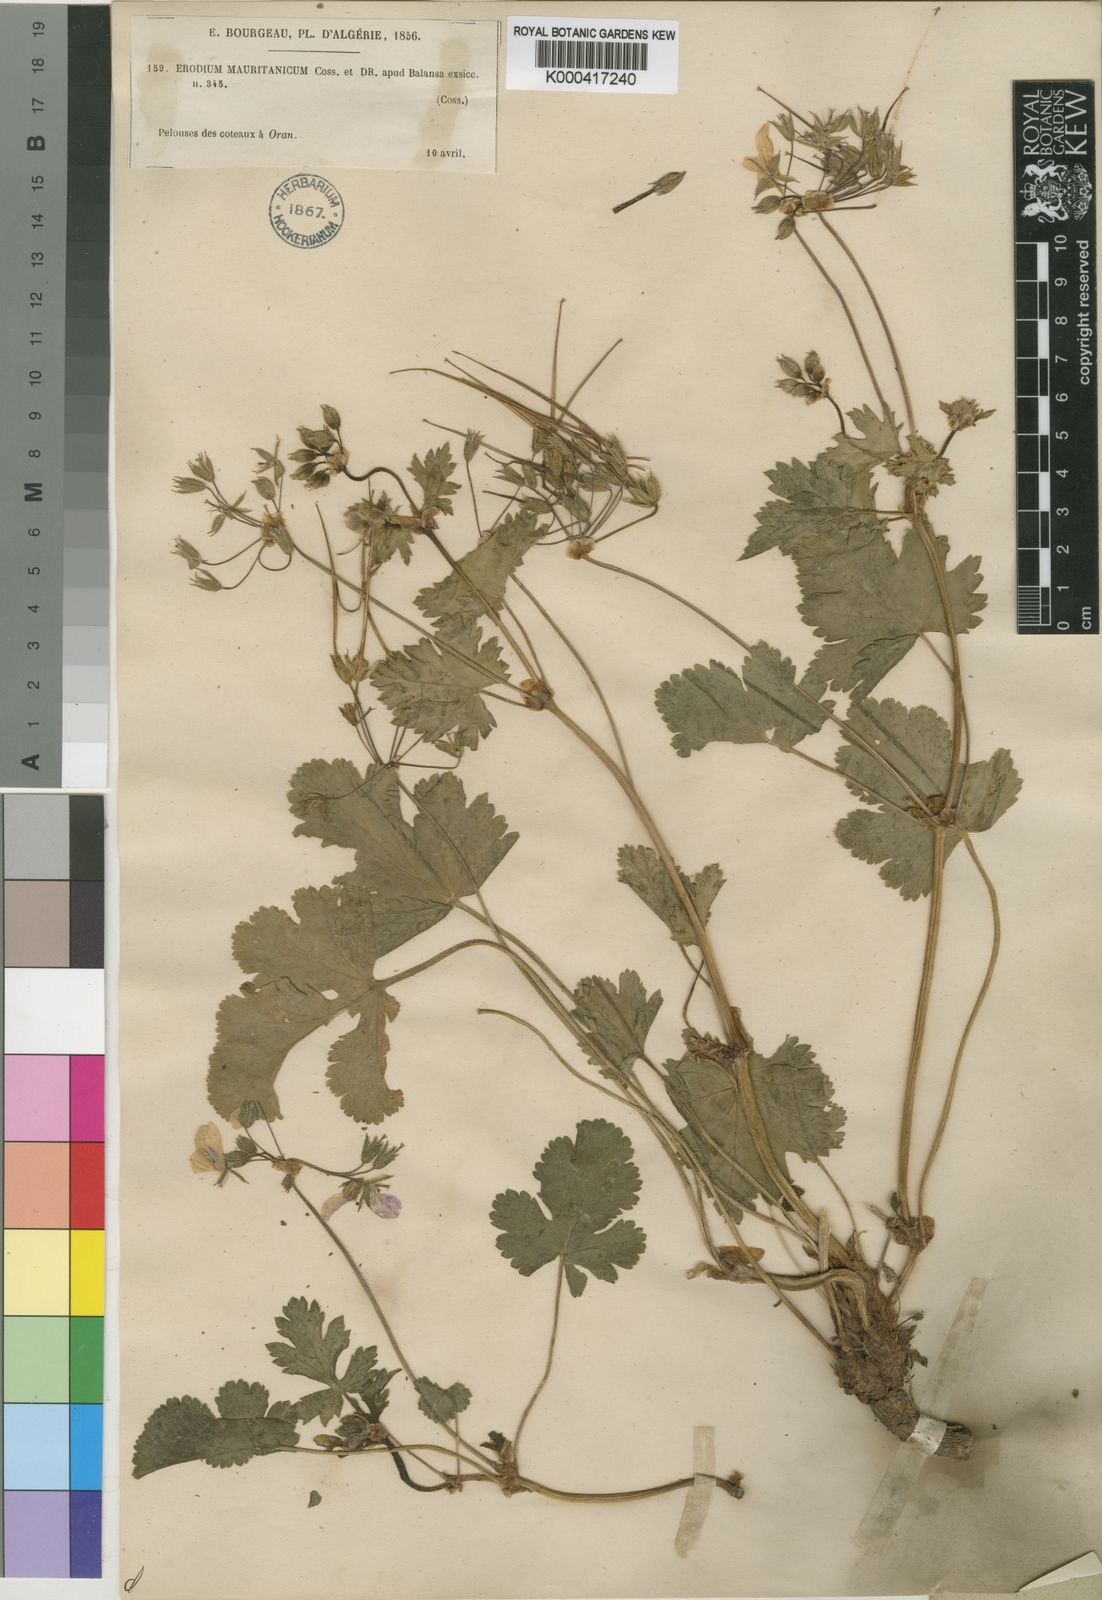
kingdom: Plantae
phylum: Tracheophyta
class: Magnoliopsida
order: Geraniales
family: Geraniaceae
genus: Erodium
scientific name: Erodium munbyanum
